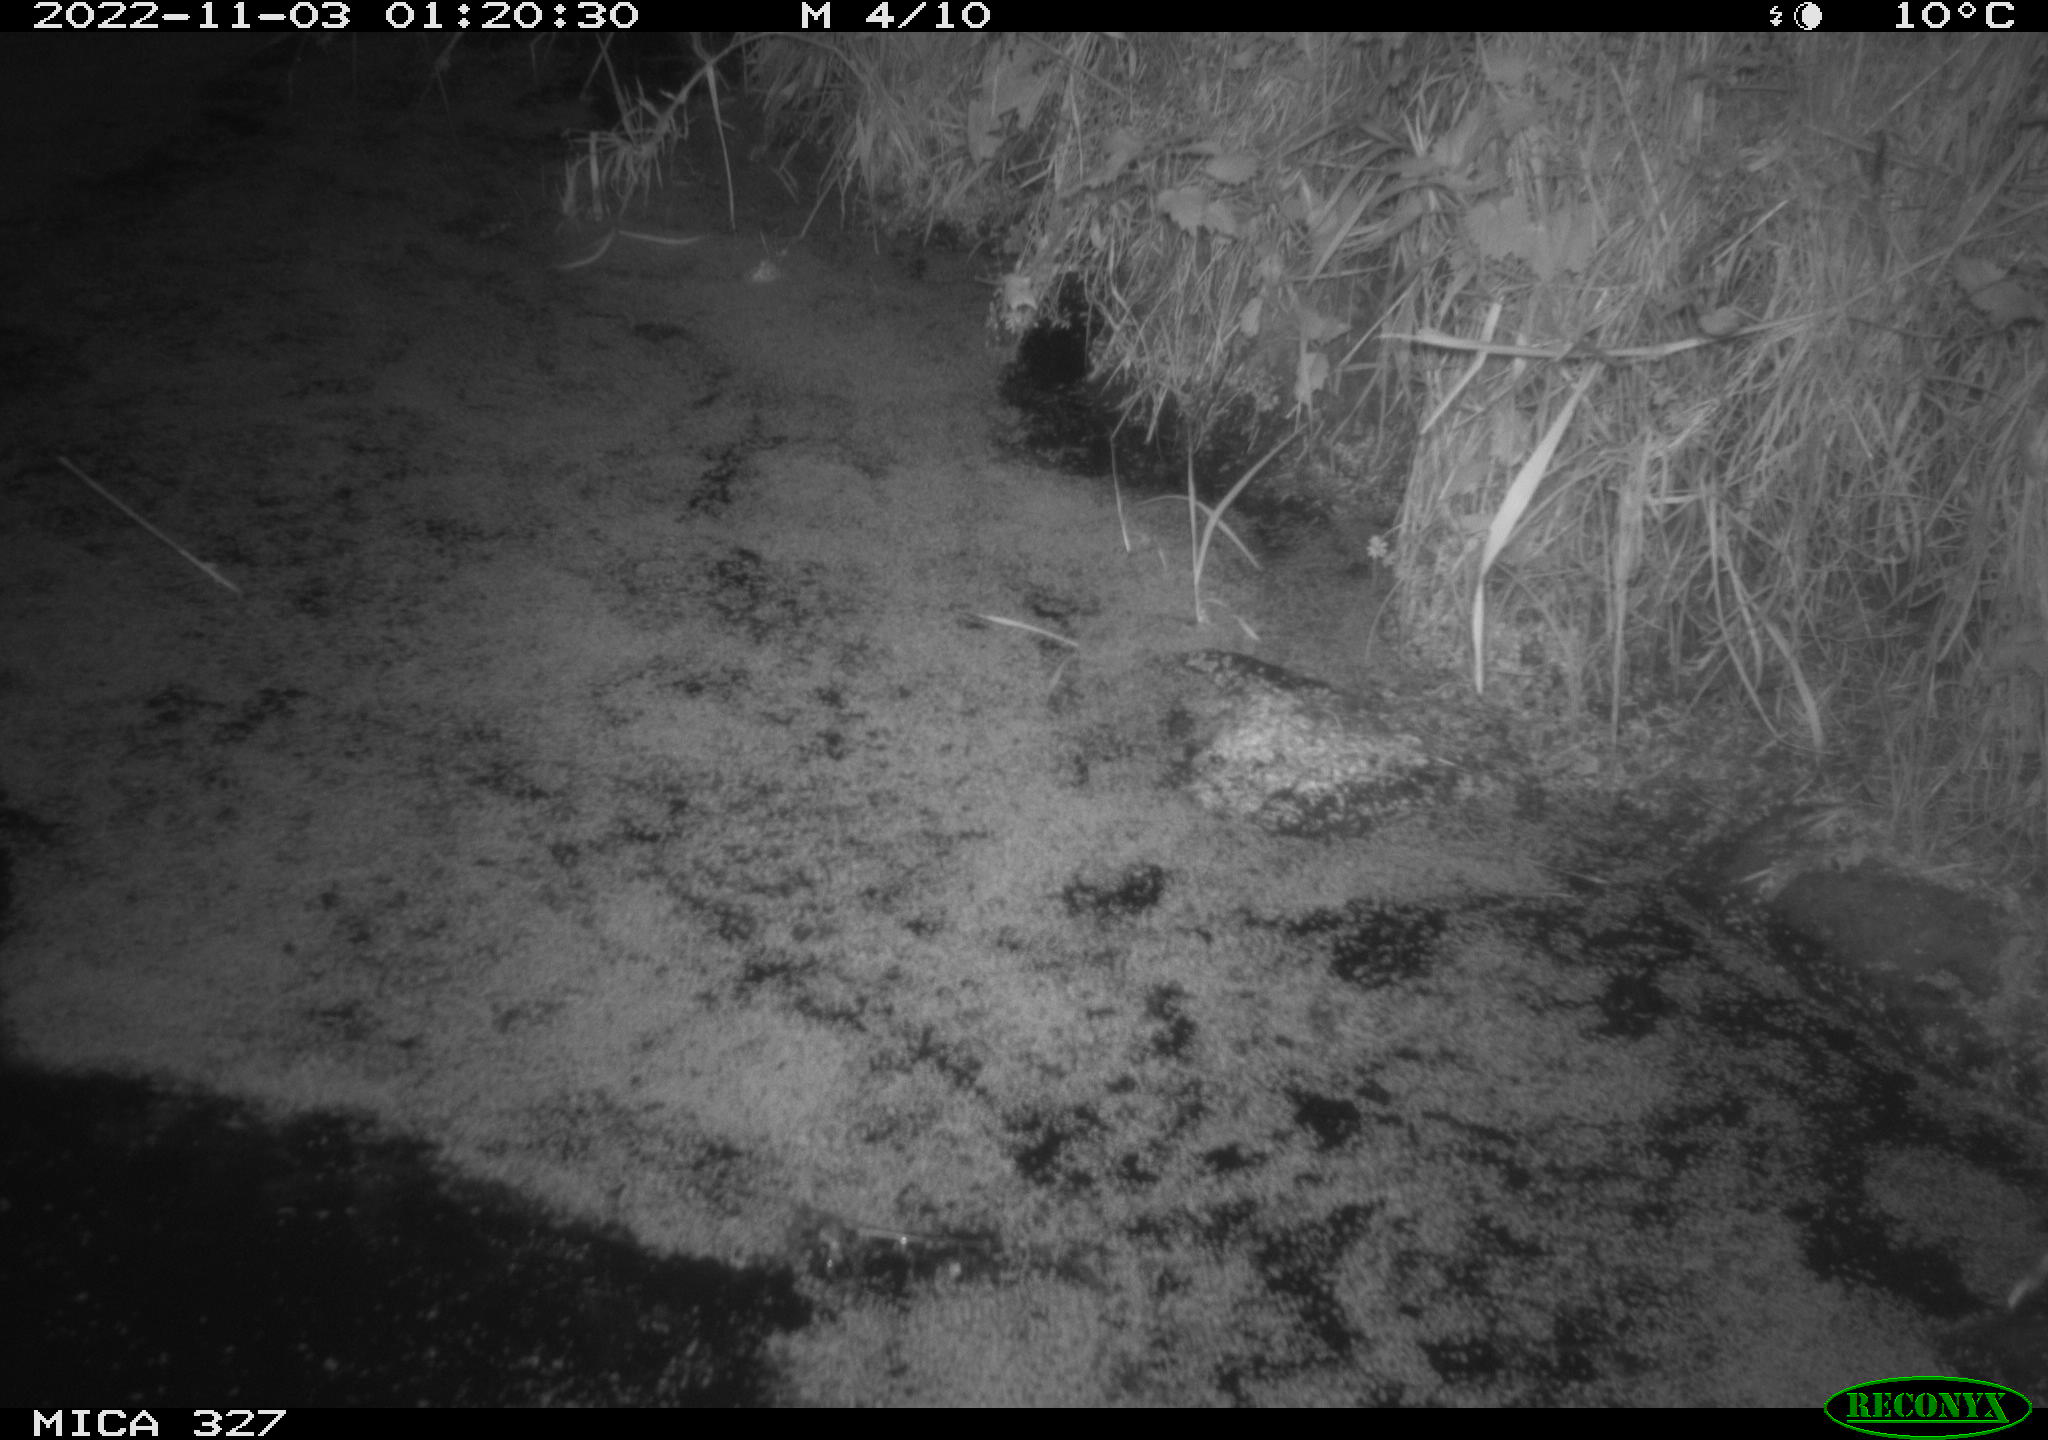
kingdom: Animalia
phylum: Chordata
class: Mammalia
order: Rodentia
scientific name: Rodentia
